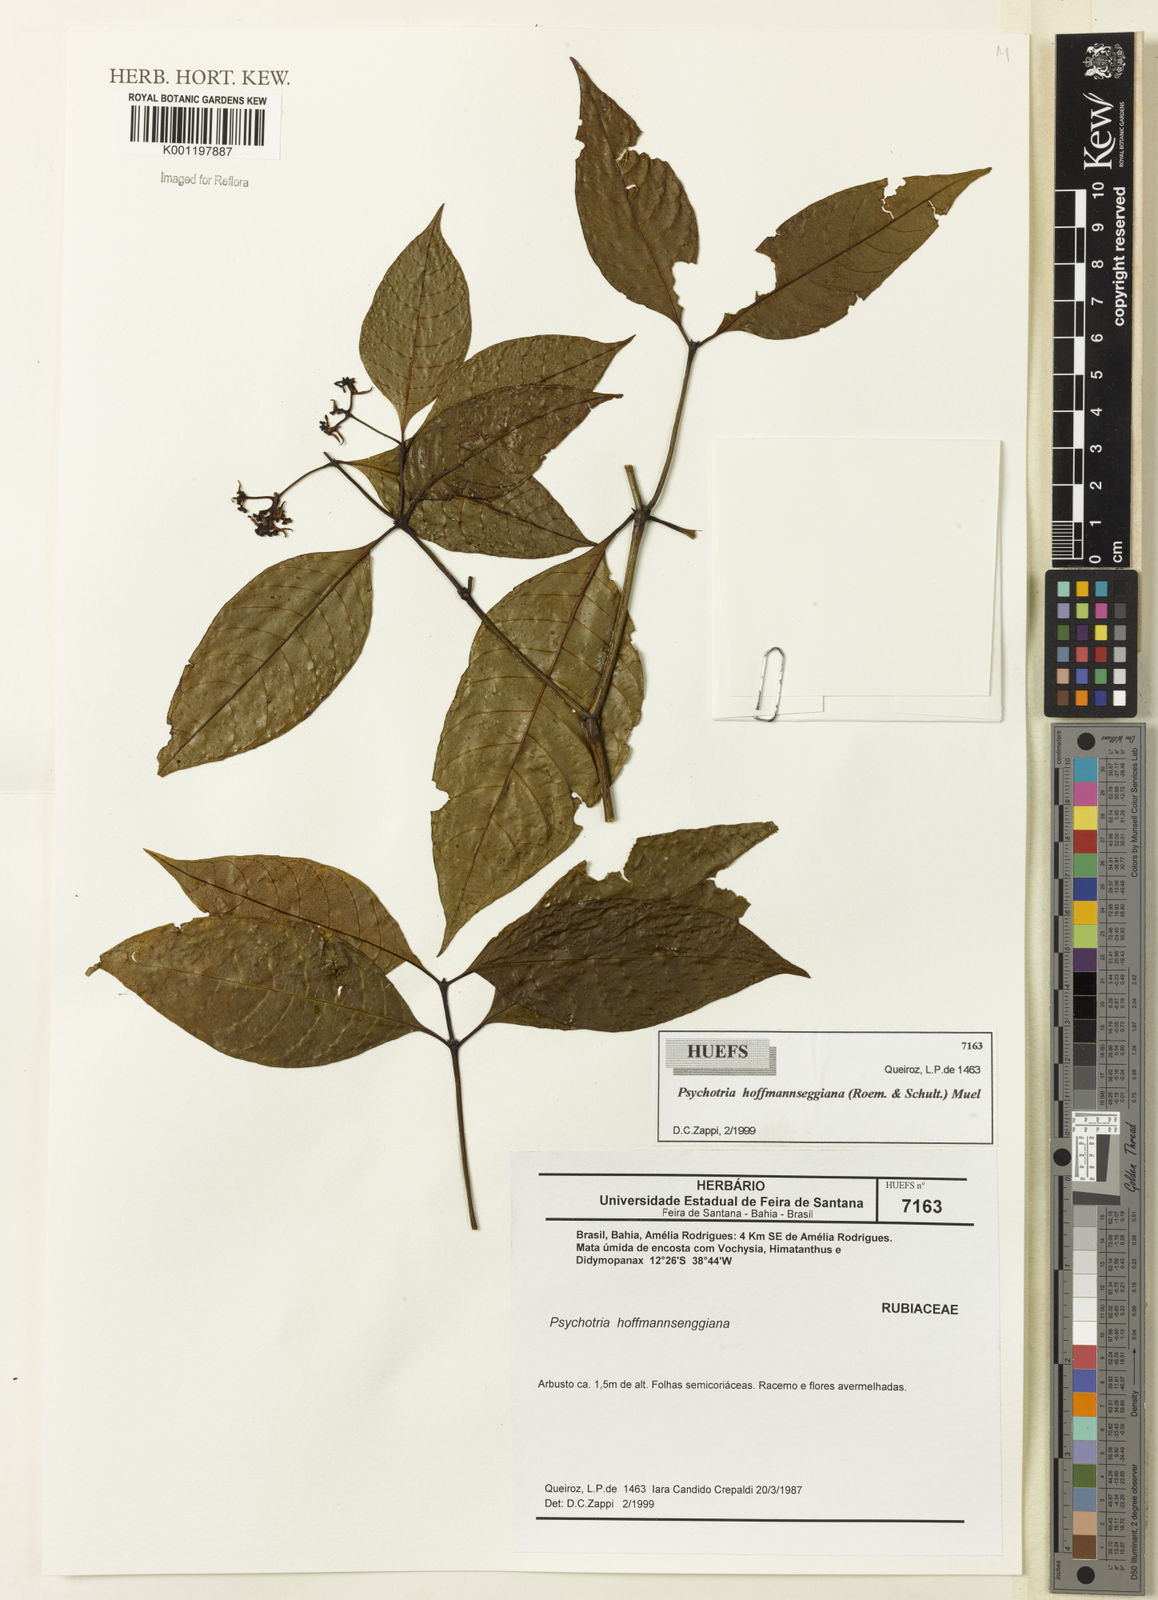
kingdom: Plantae
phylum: Tracheophyta
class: Magnoliopsida
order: Gentianales
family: Rubiaceae
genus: Psychotria
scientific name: Psychotria
